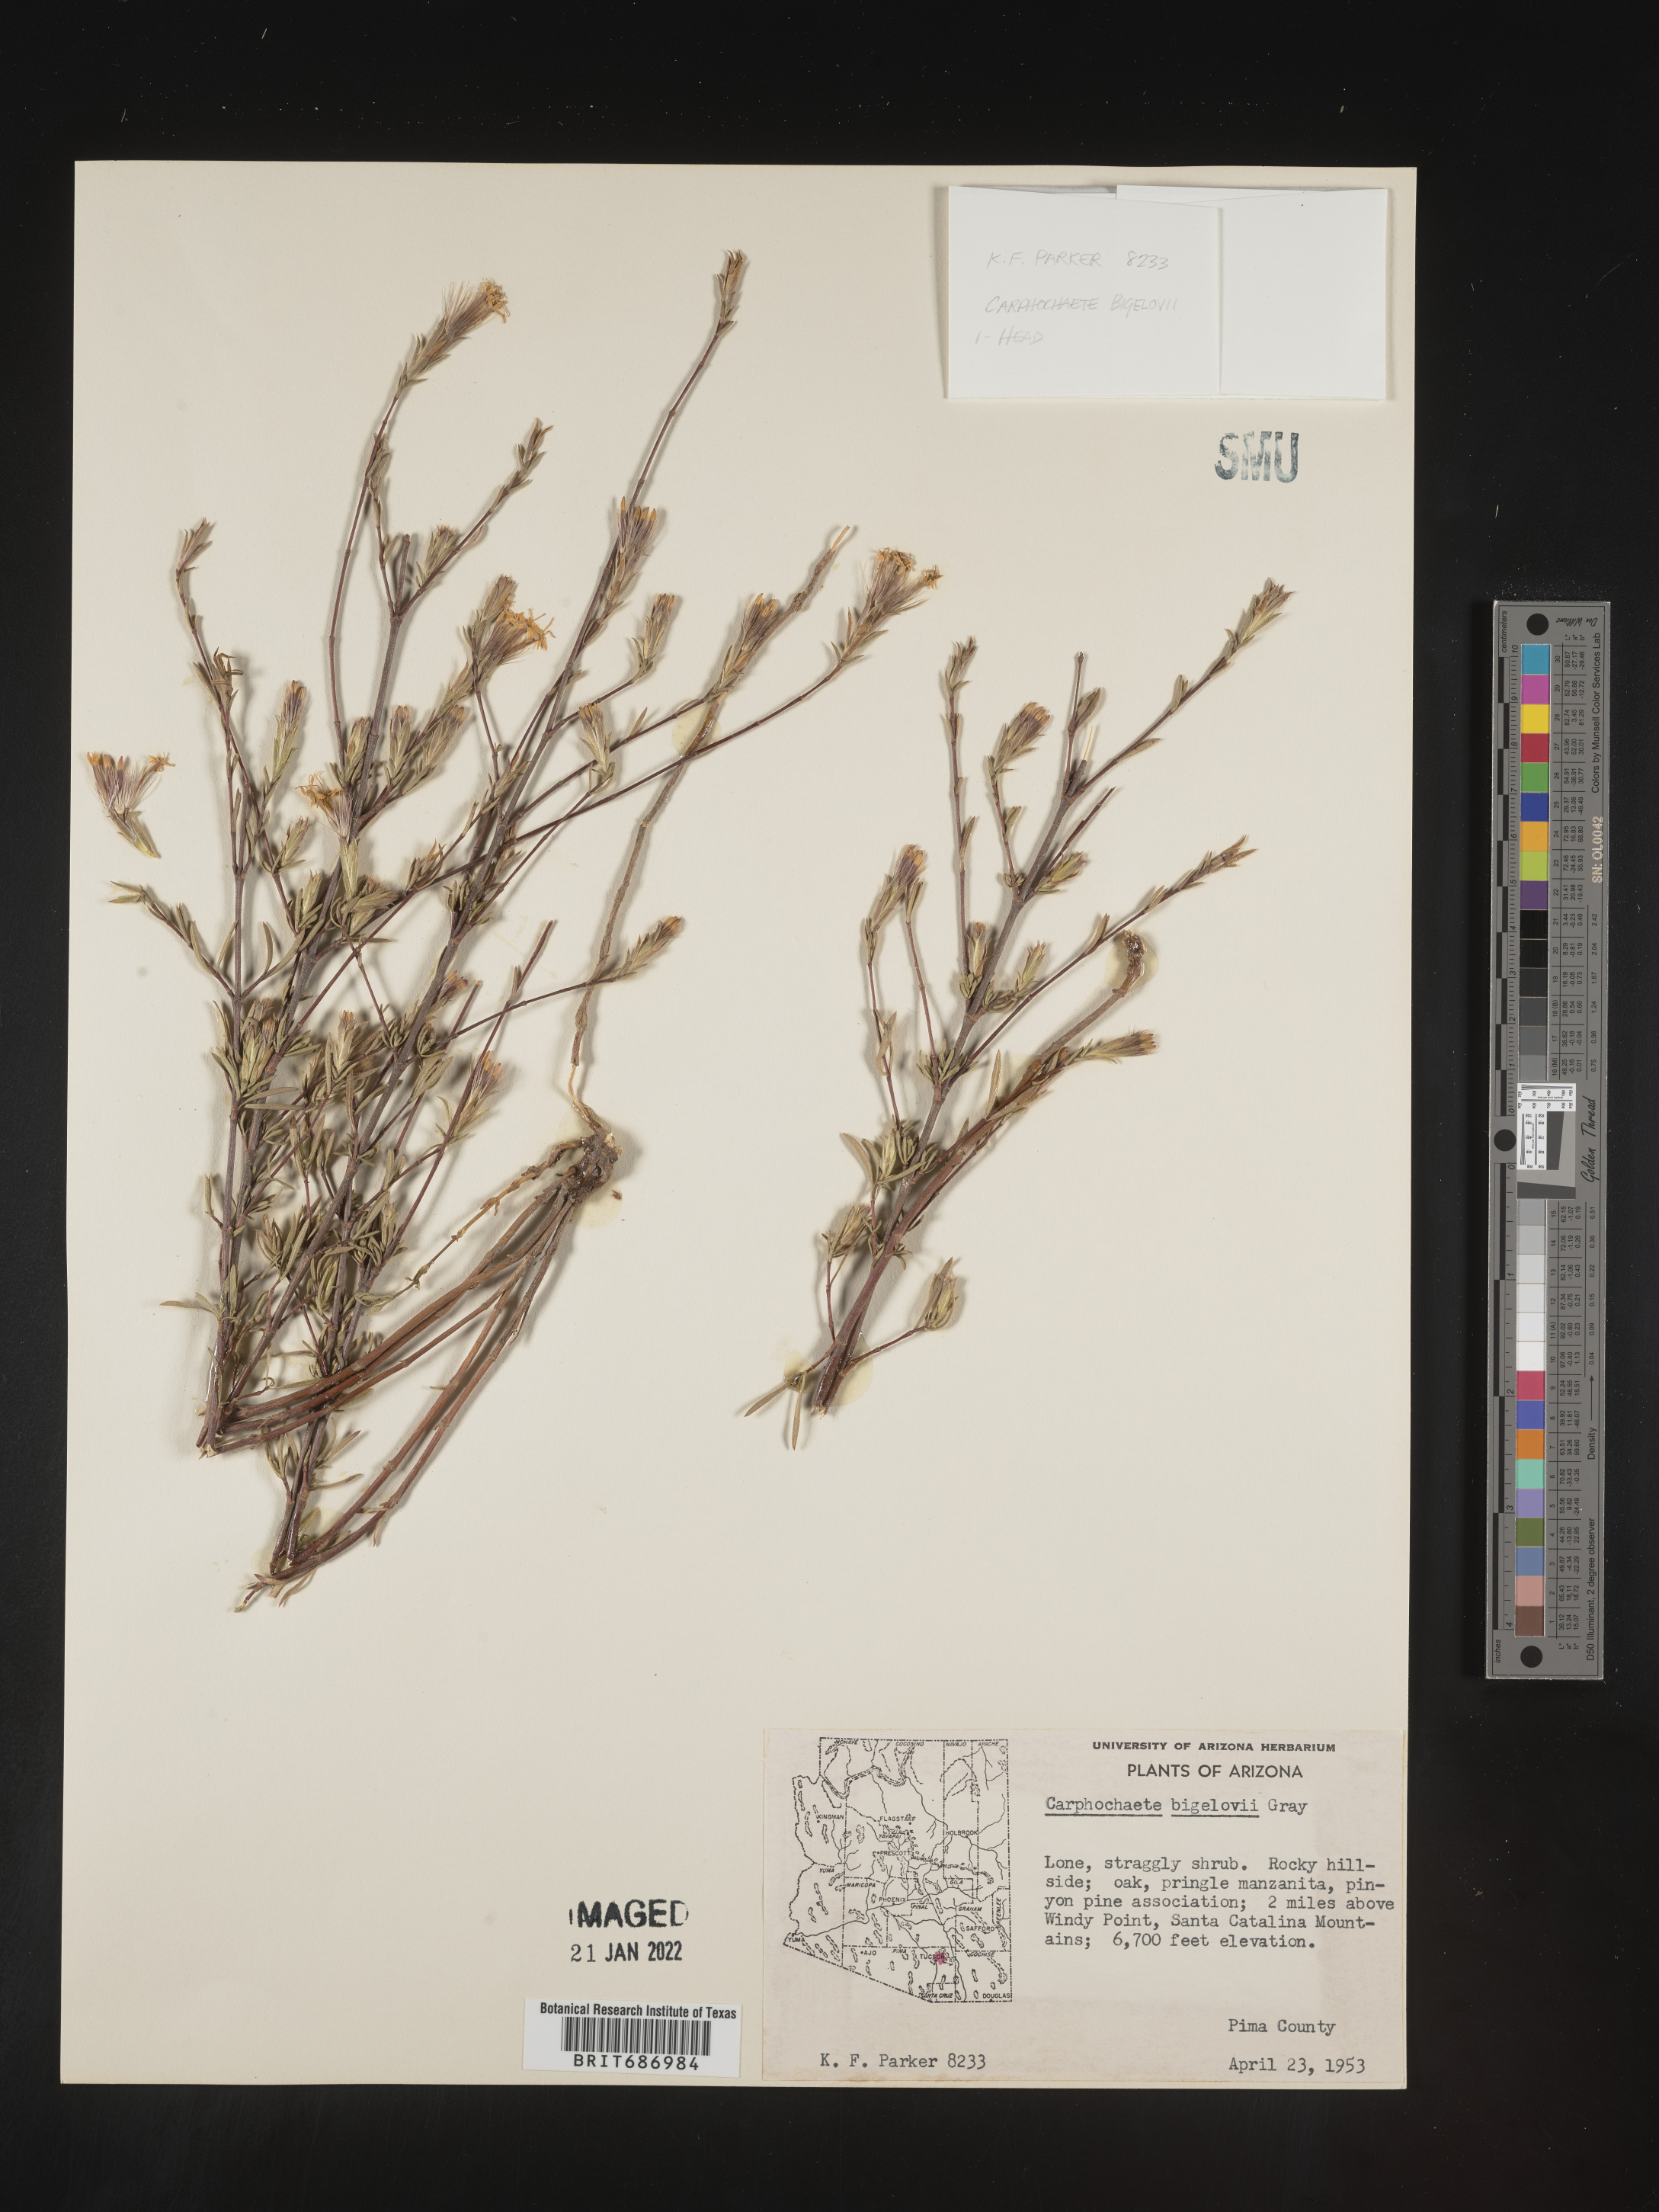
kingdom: Plantae
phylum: Tracheophyta
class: Magnoliopsida
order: Asterales
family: Asteraceae
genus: Carphochaete
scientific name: Carphochaete
